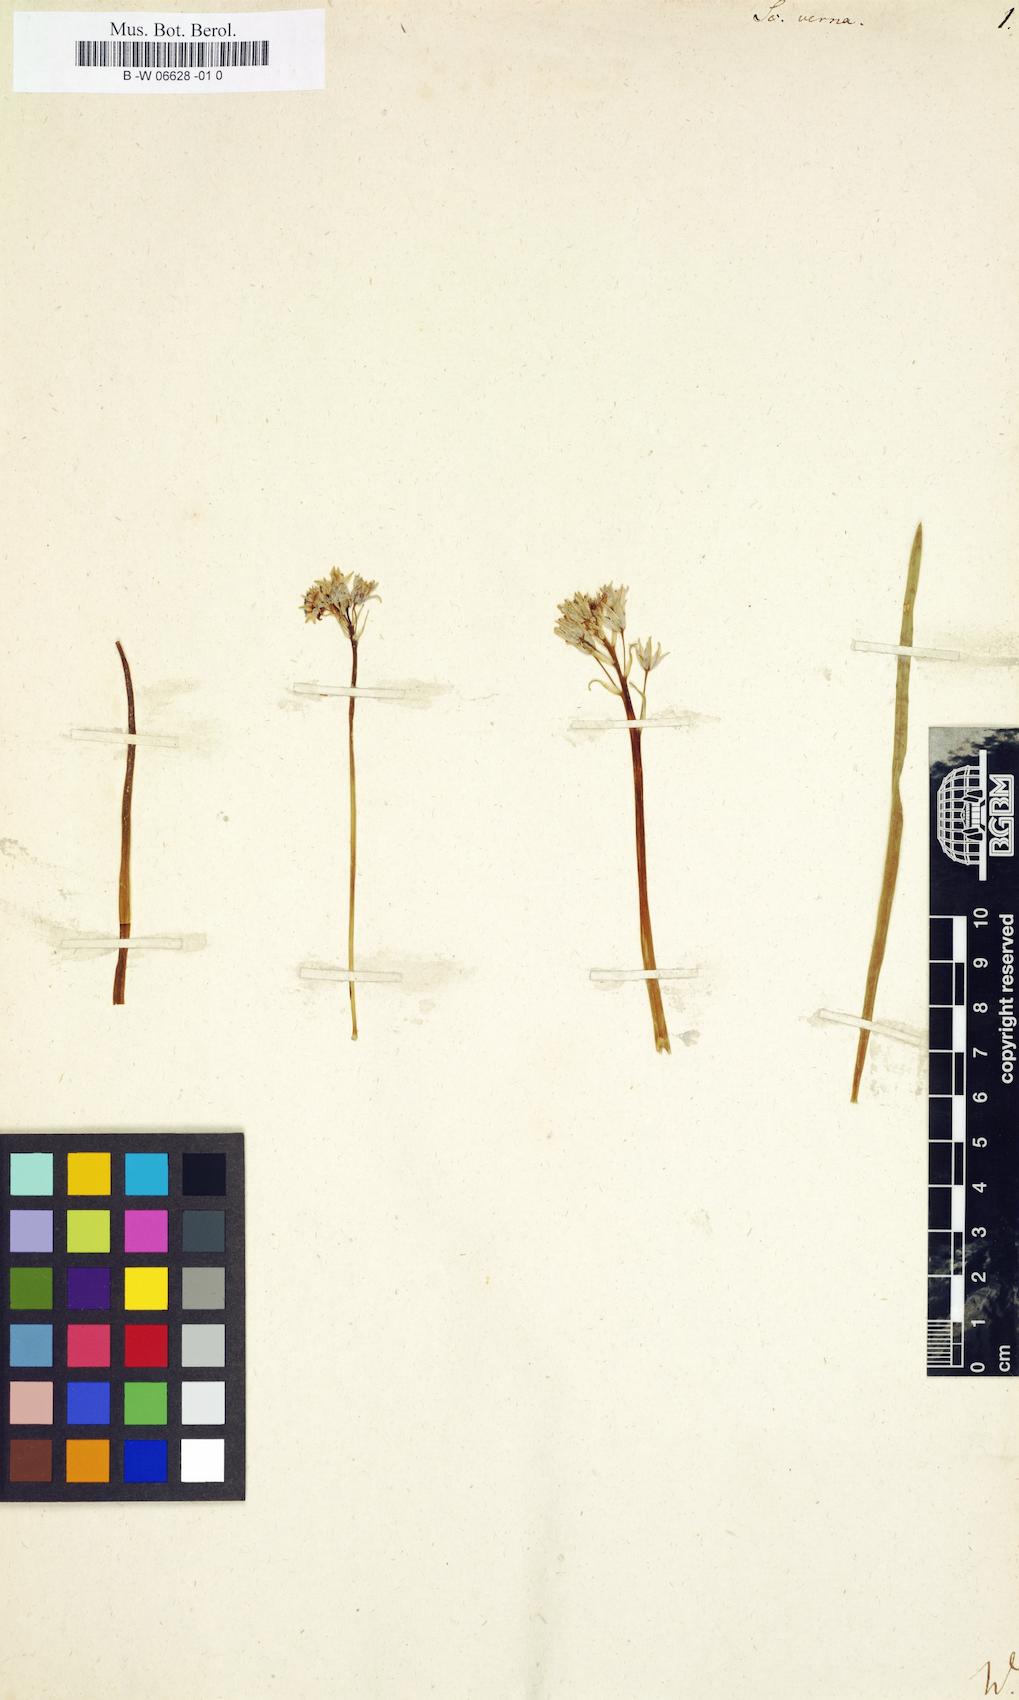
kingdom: Plantae
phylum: Tracheophyta
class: Liliopsida
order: Asparagales
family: Asparagaceae
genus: Scilla
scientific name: Scilla verna
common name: Spring squill
